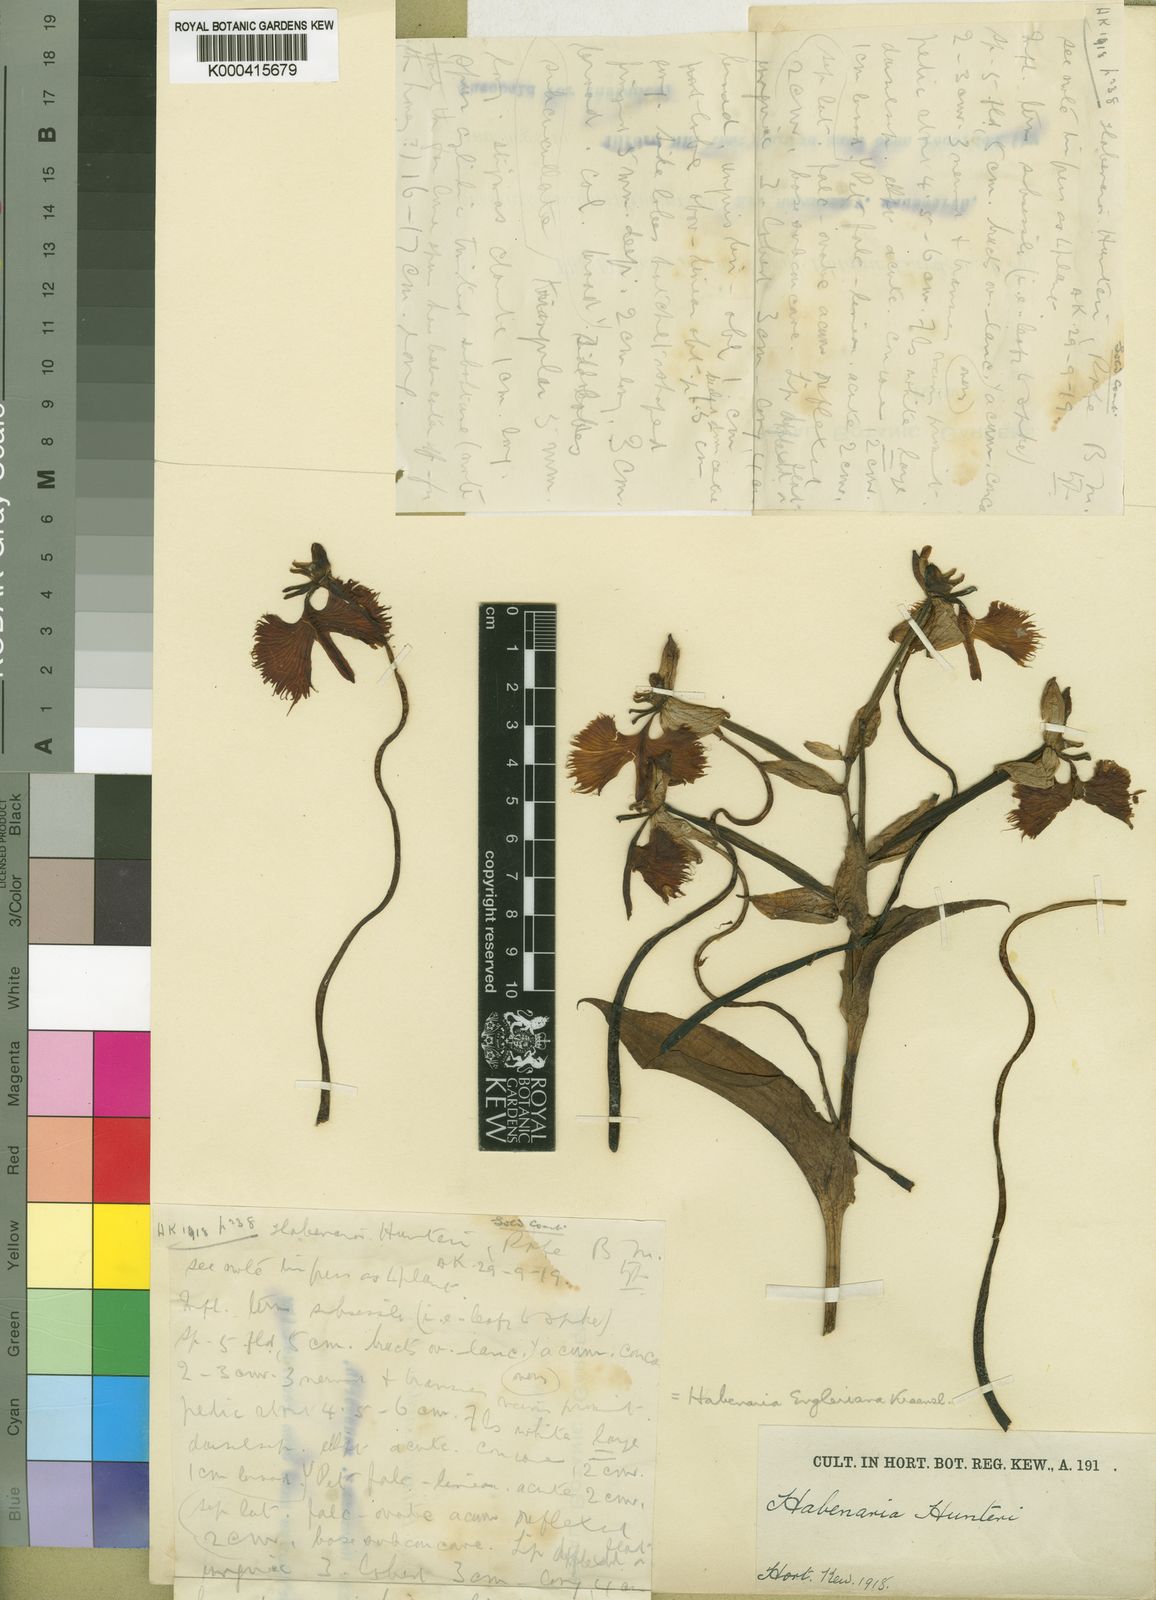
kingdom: Plantae
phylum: Tracheophyta
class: Liliopsida
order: Asparagales
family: Orchidaceae
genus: Habenaria
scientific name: Habenaria engleriana
